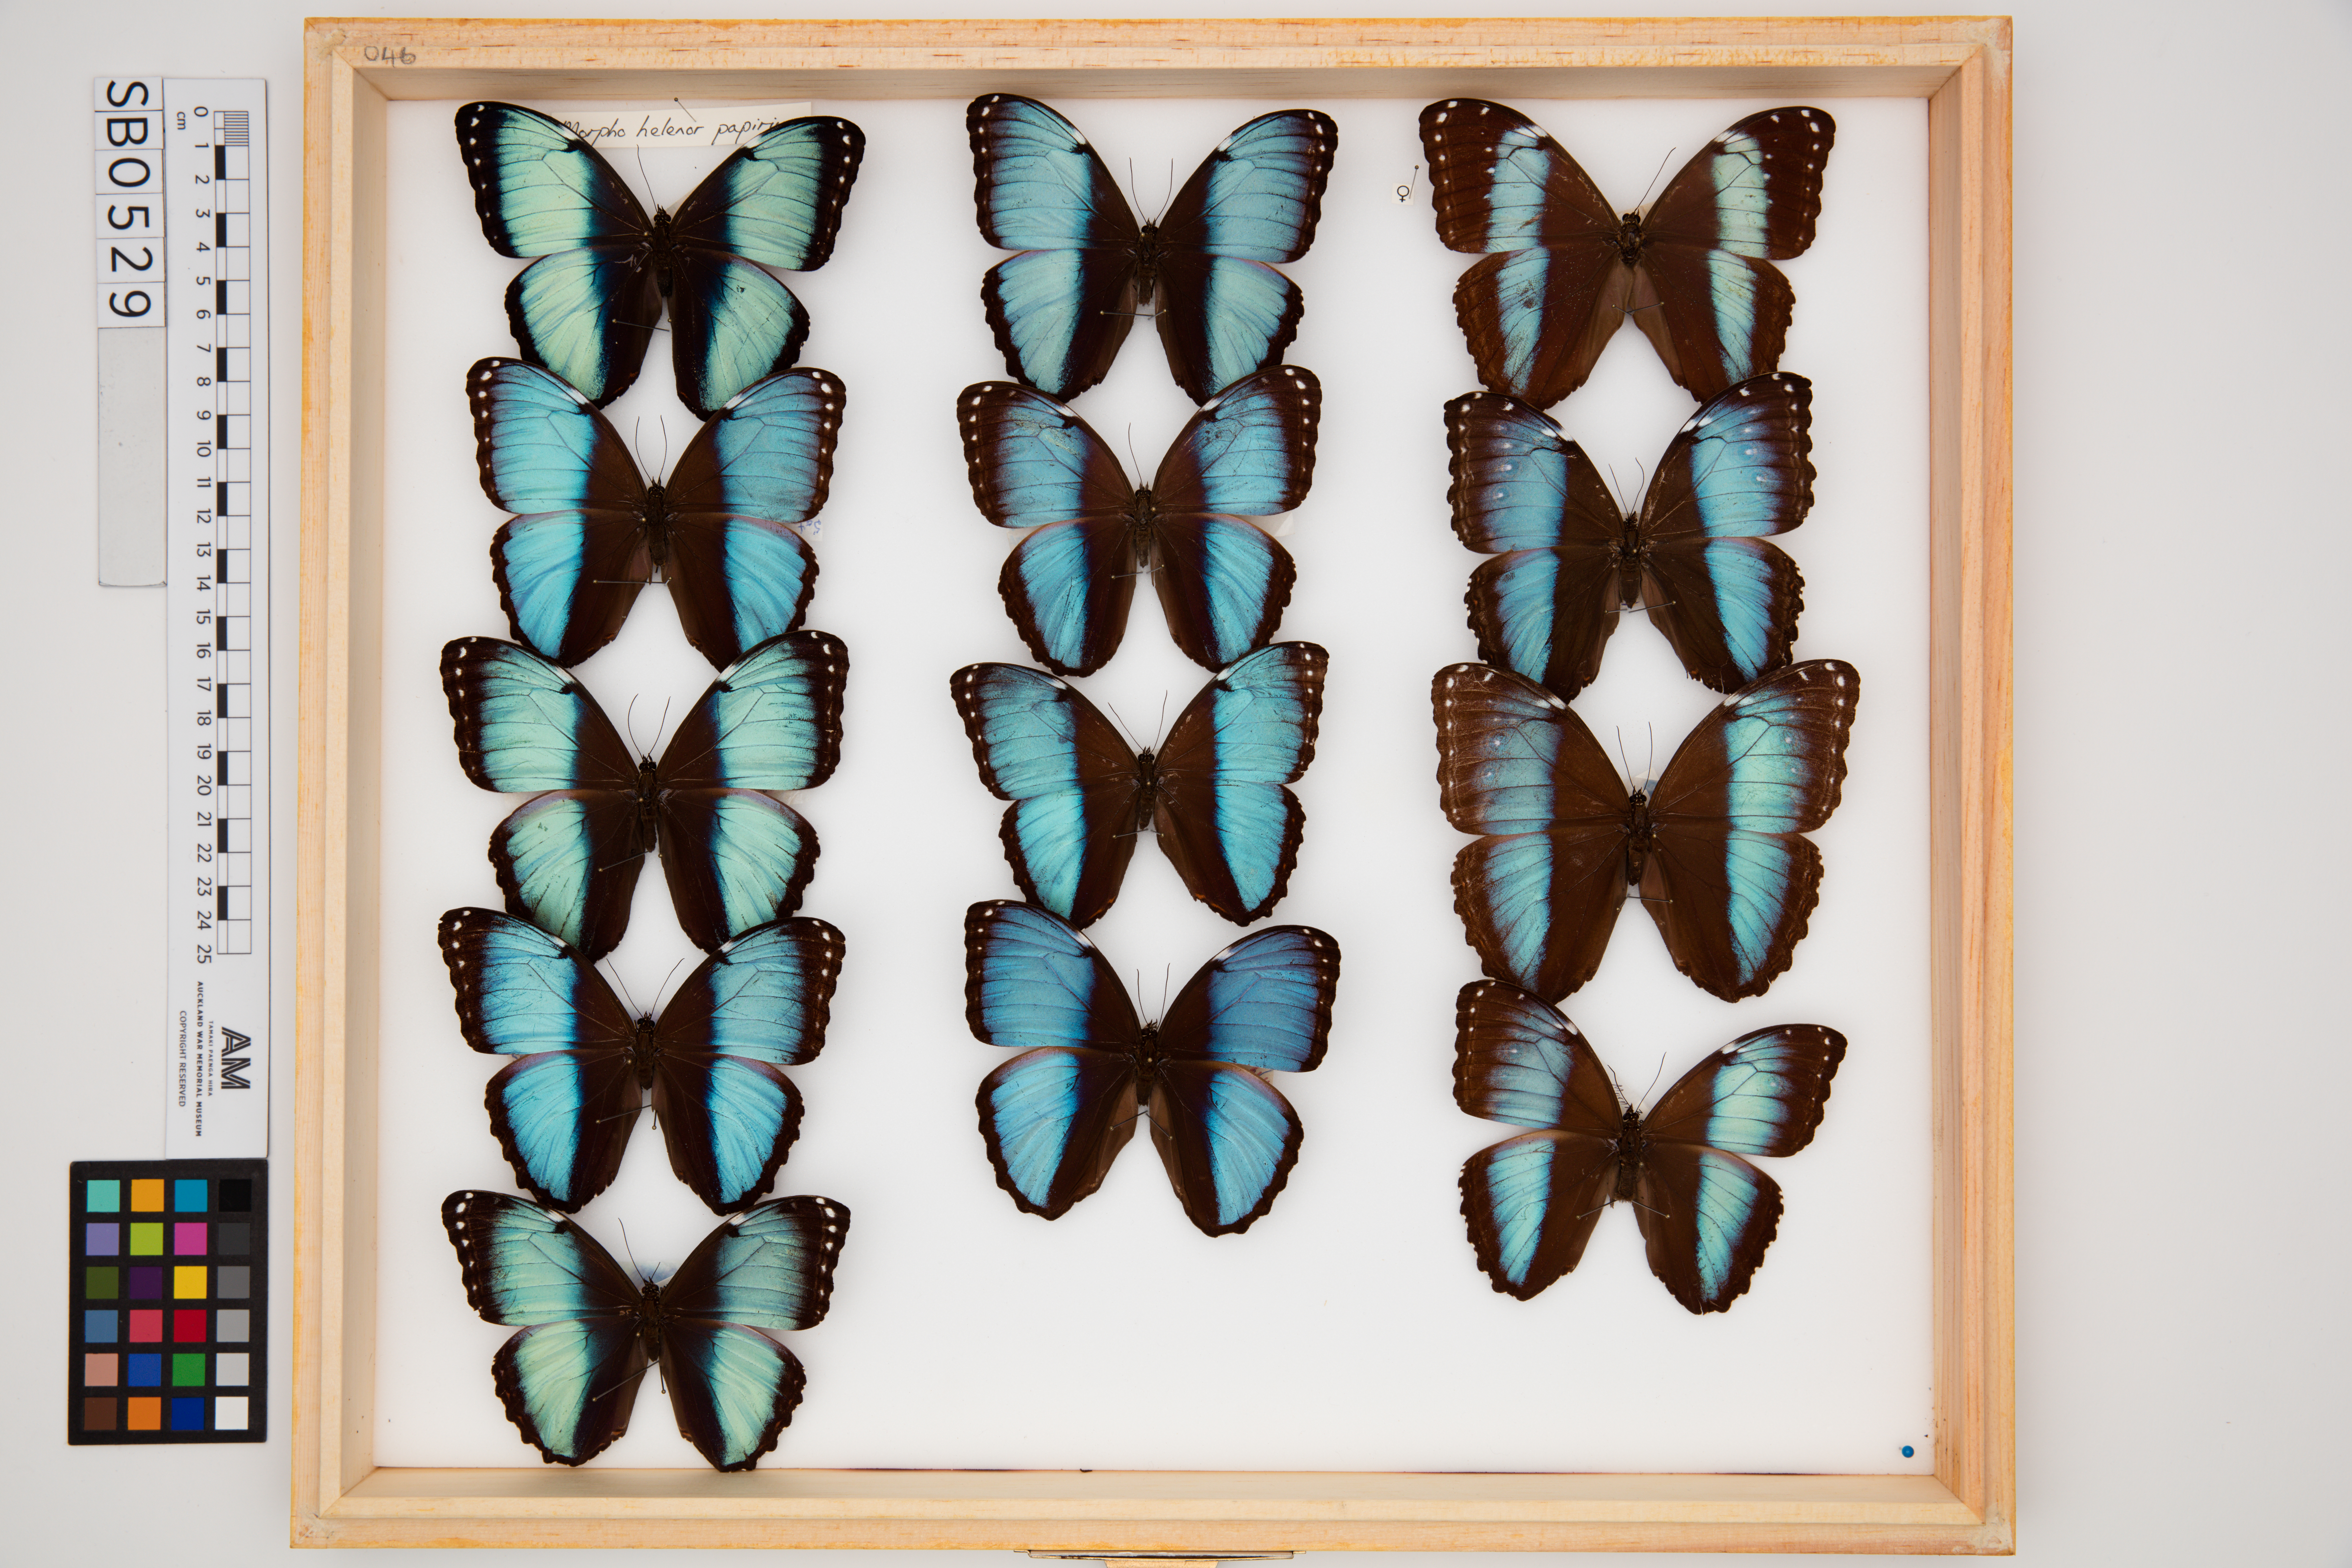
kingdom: Animalia
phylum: Arthropoda
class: Insecta
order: Lepidoptera
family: Nymphalidae
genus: Morpho
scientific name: Morpho helenor
